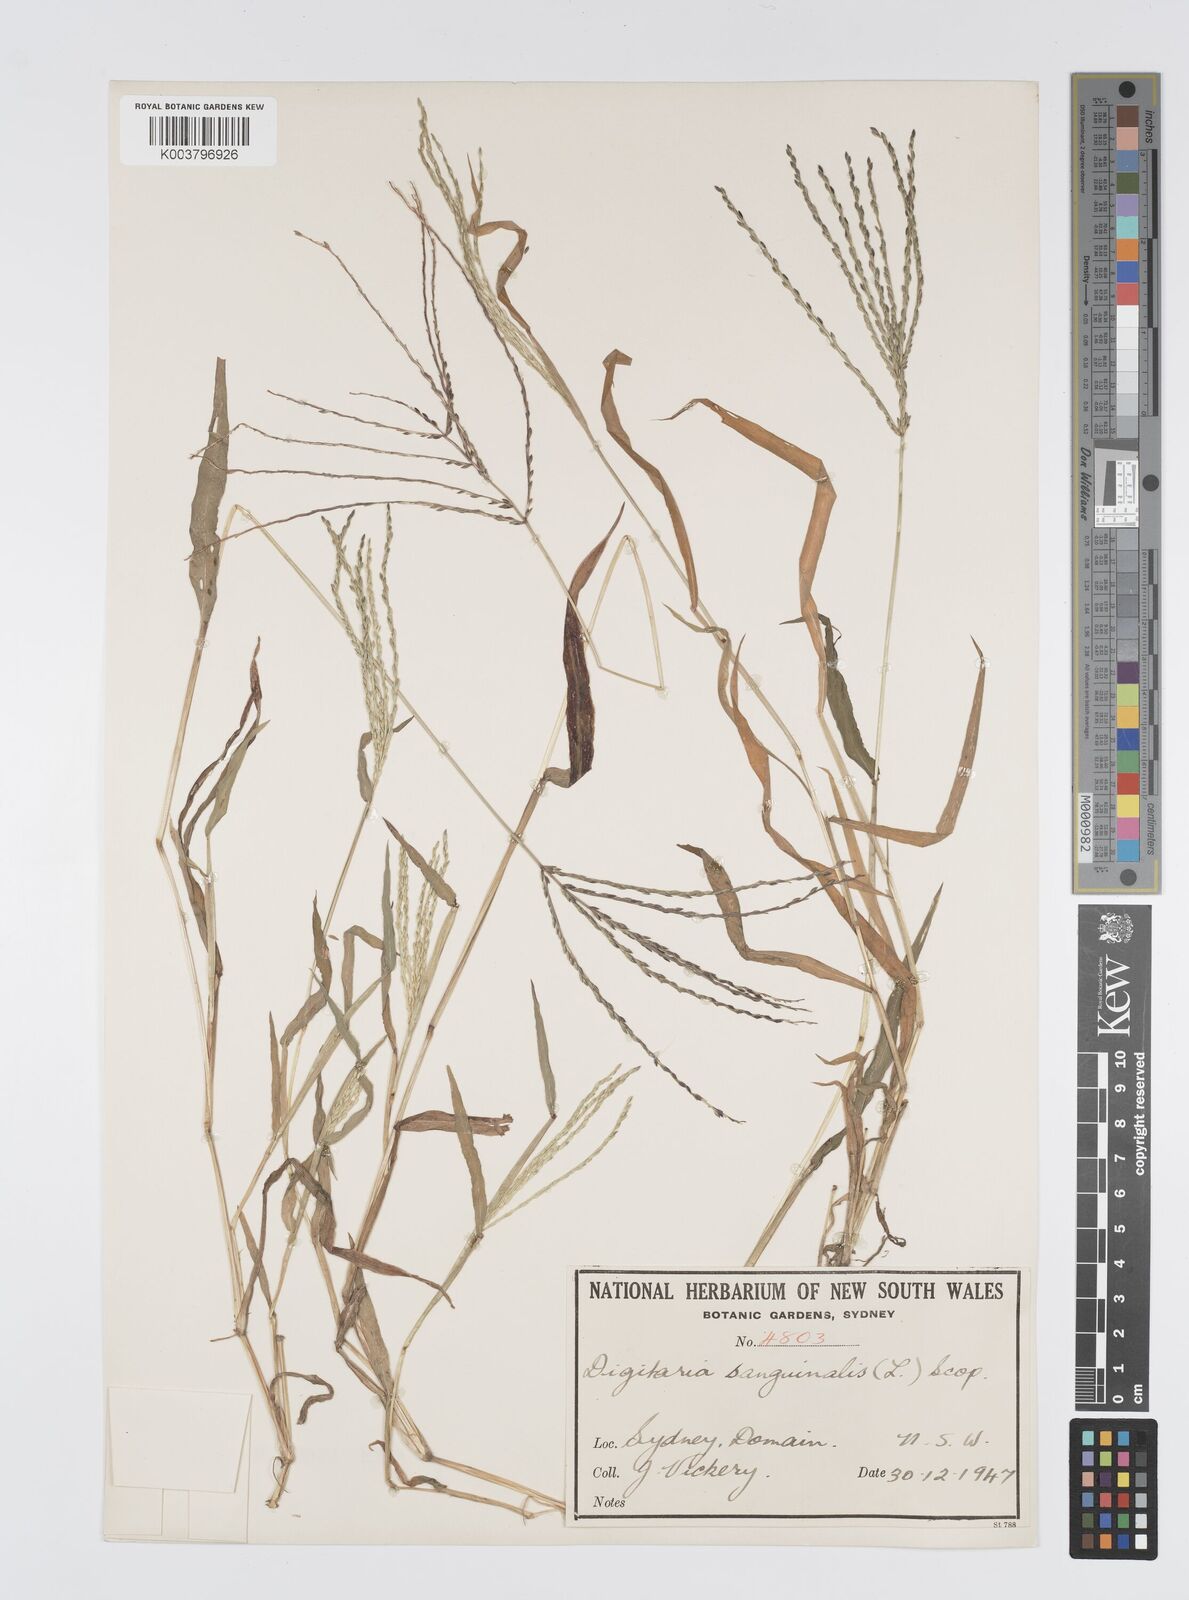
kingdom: Plantae
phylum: Tracheophyta
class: Liliopsida
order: Poales
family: Poaceae
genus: Digitaria
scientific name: Digitaria sanguinalis
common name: Hairy crabgrass
